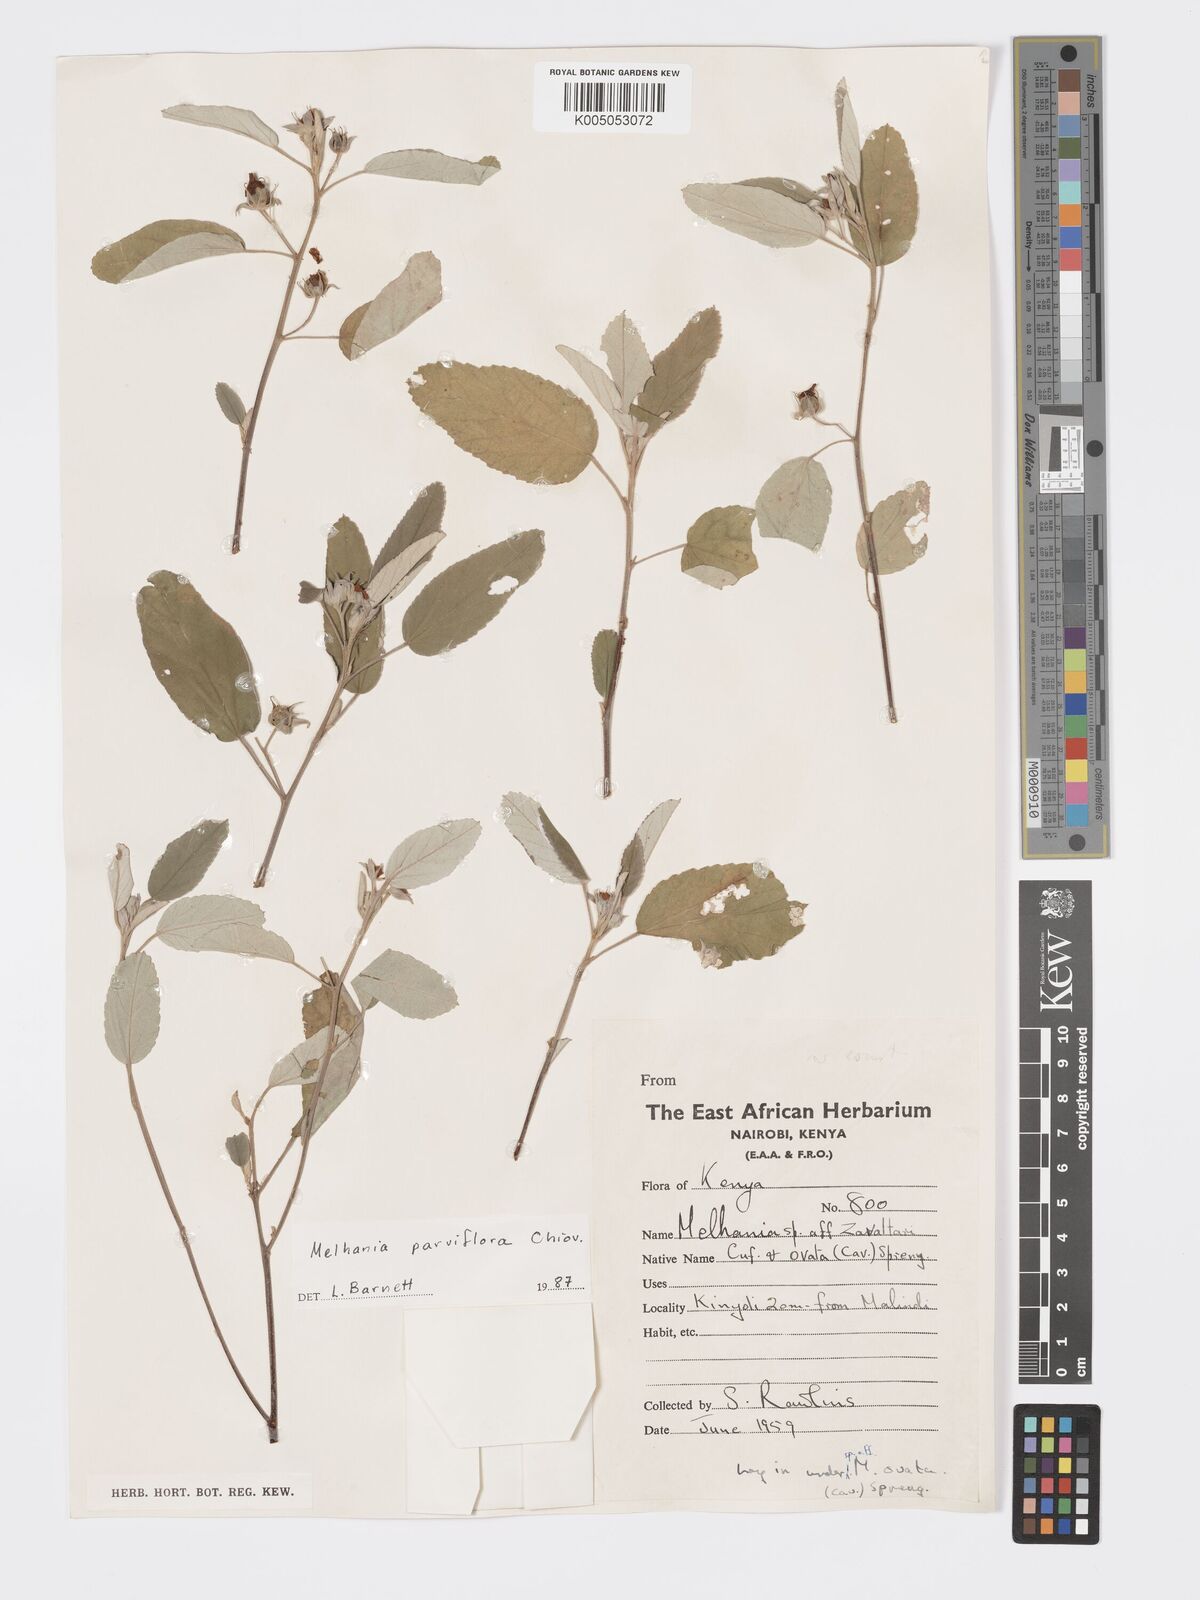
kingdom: Plantae
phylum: Tracheophyta
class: Magnoliopsida
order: Malvales
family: Malvaceae
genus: Melhania
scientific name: Melhania parviflora
